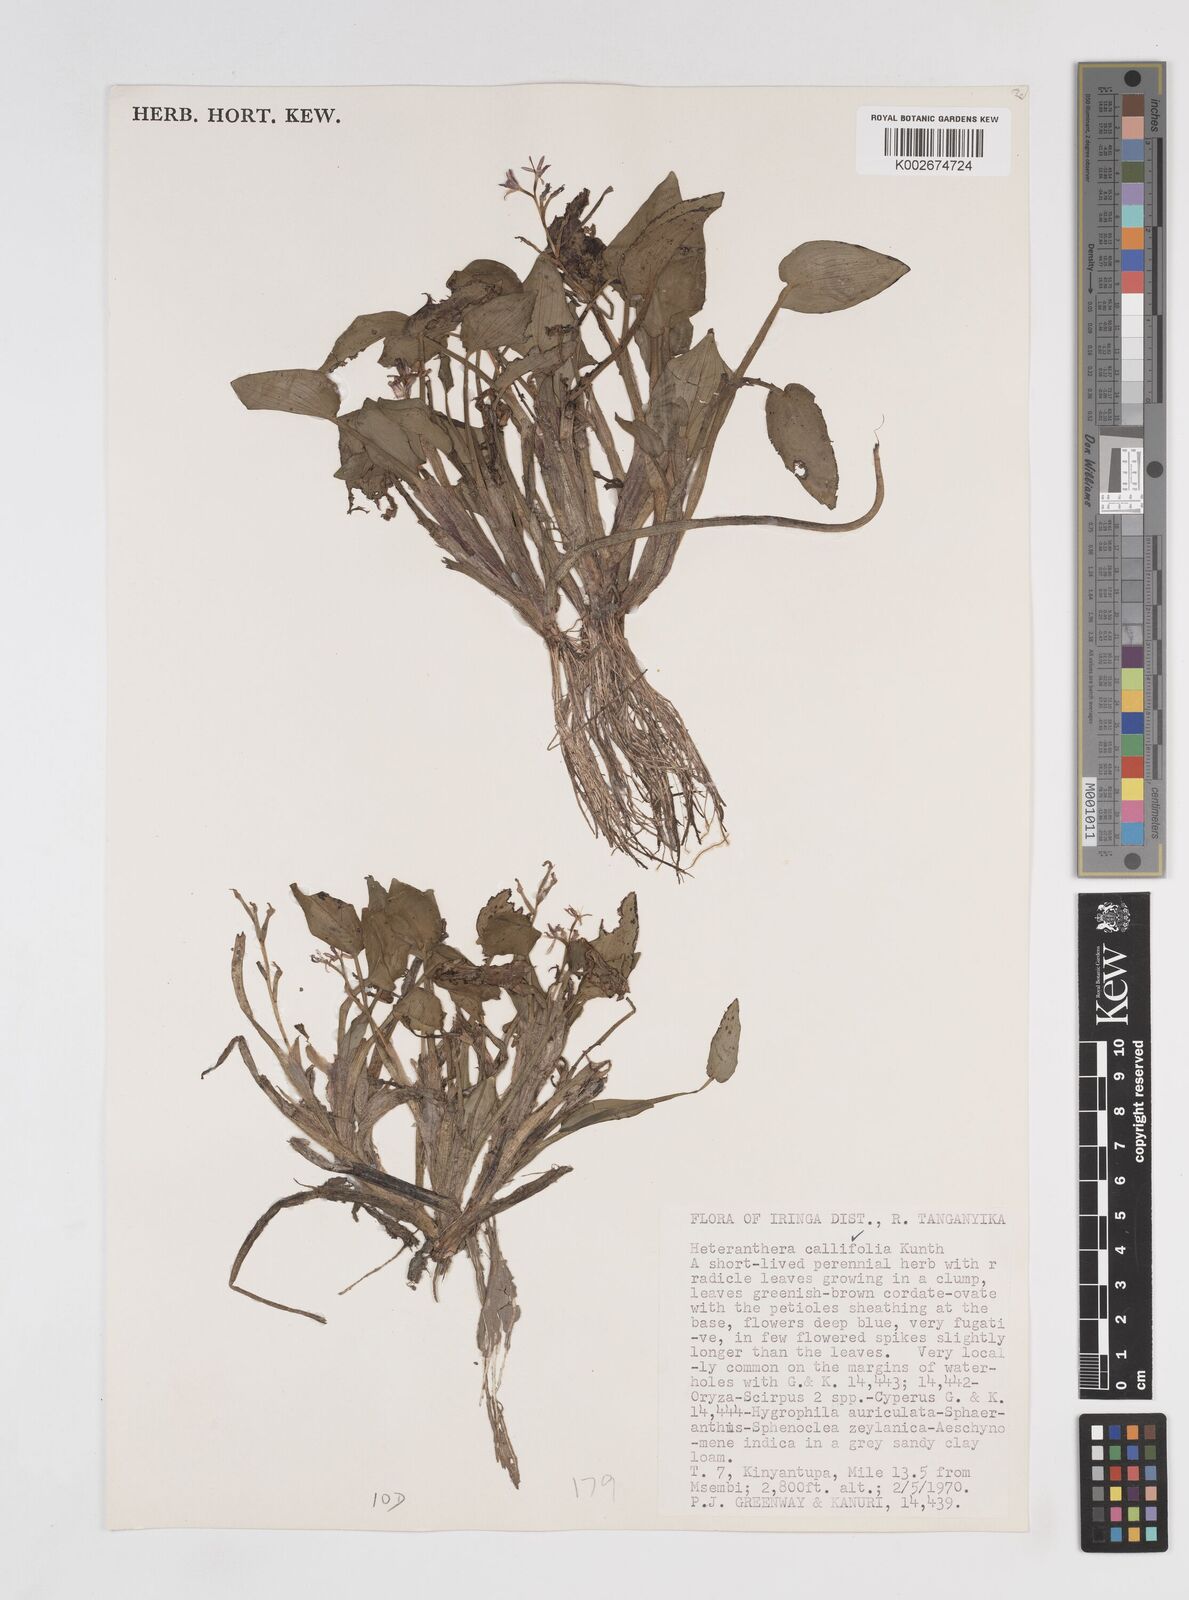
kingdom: Plantae
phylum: Tracheophyta
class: Liliopsida
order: Commelinales
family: Pontederiaceae
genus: Heteranthera
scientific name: Heteranthera callifolia
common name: Mud plantain
